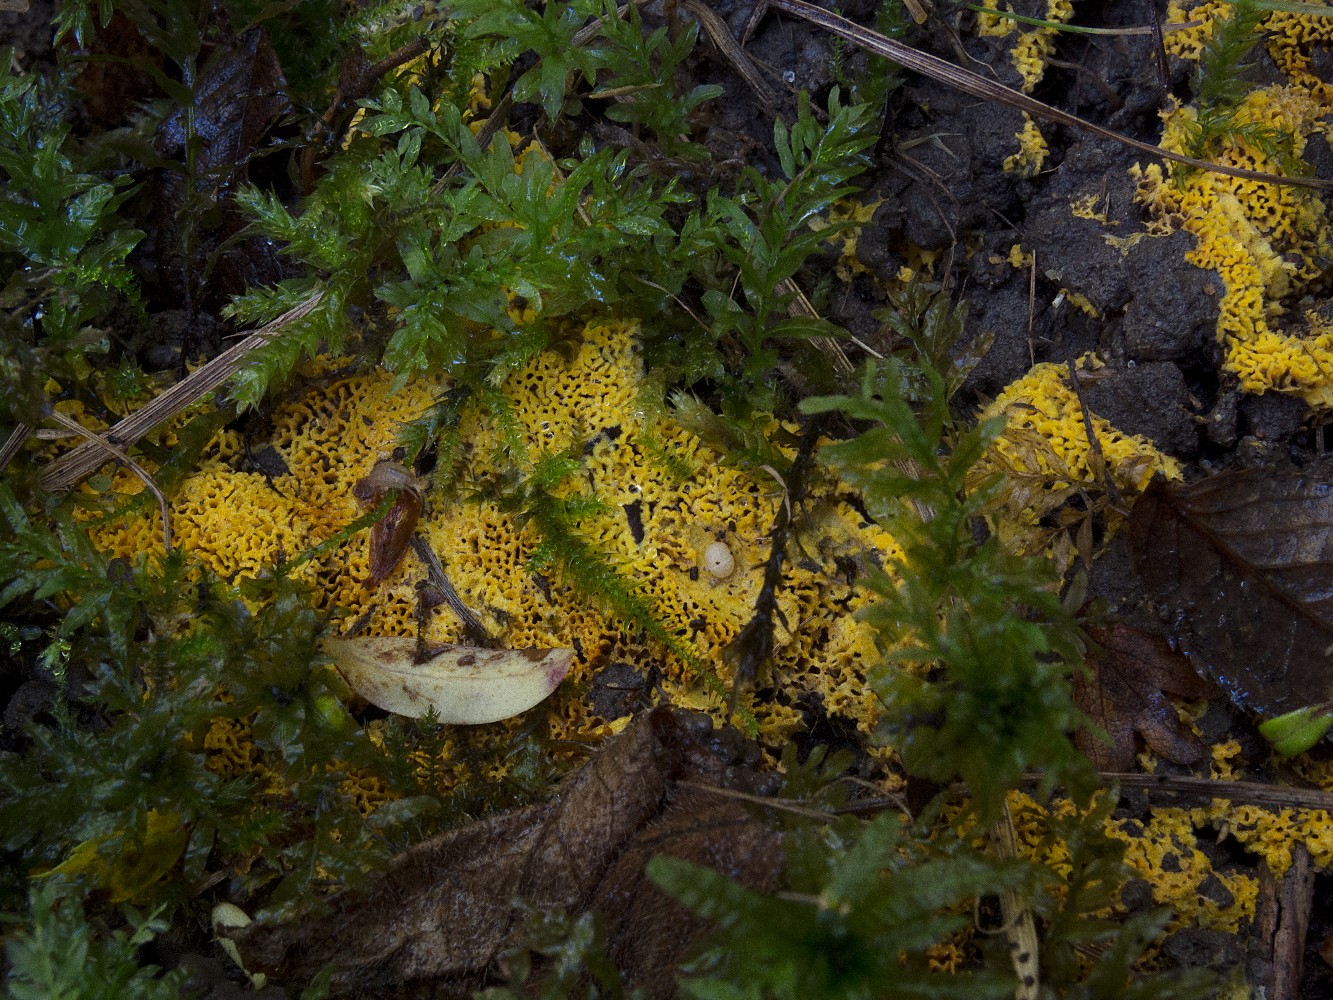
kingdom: Fungi
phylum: Basidiomycota
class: Agaricomycetes
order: Agaricales
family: Stephanosporaceae
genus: Lindtneria
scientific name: Lindtneria trachyspora
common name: labyrint-citrushinde
